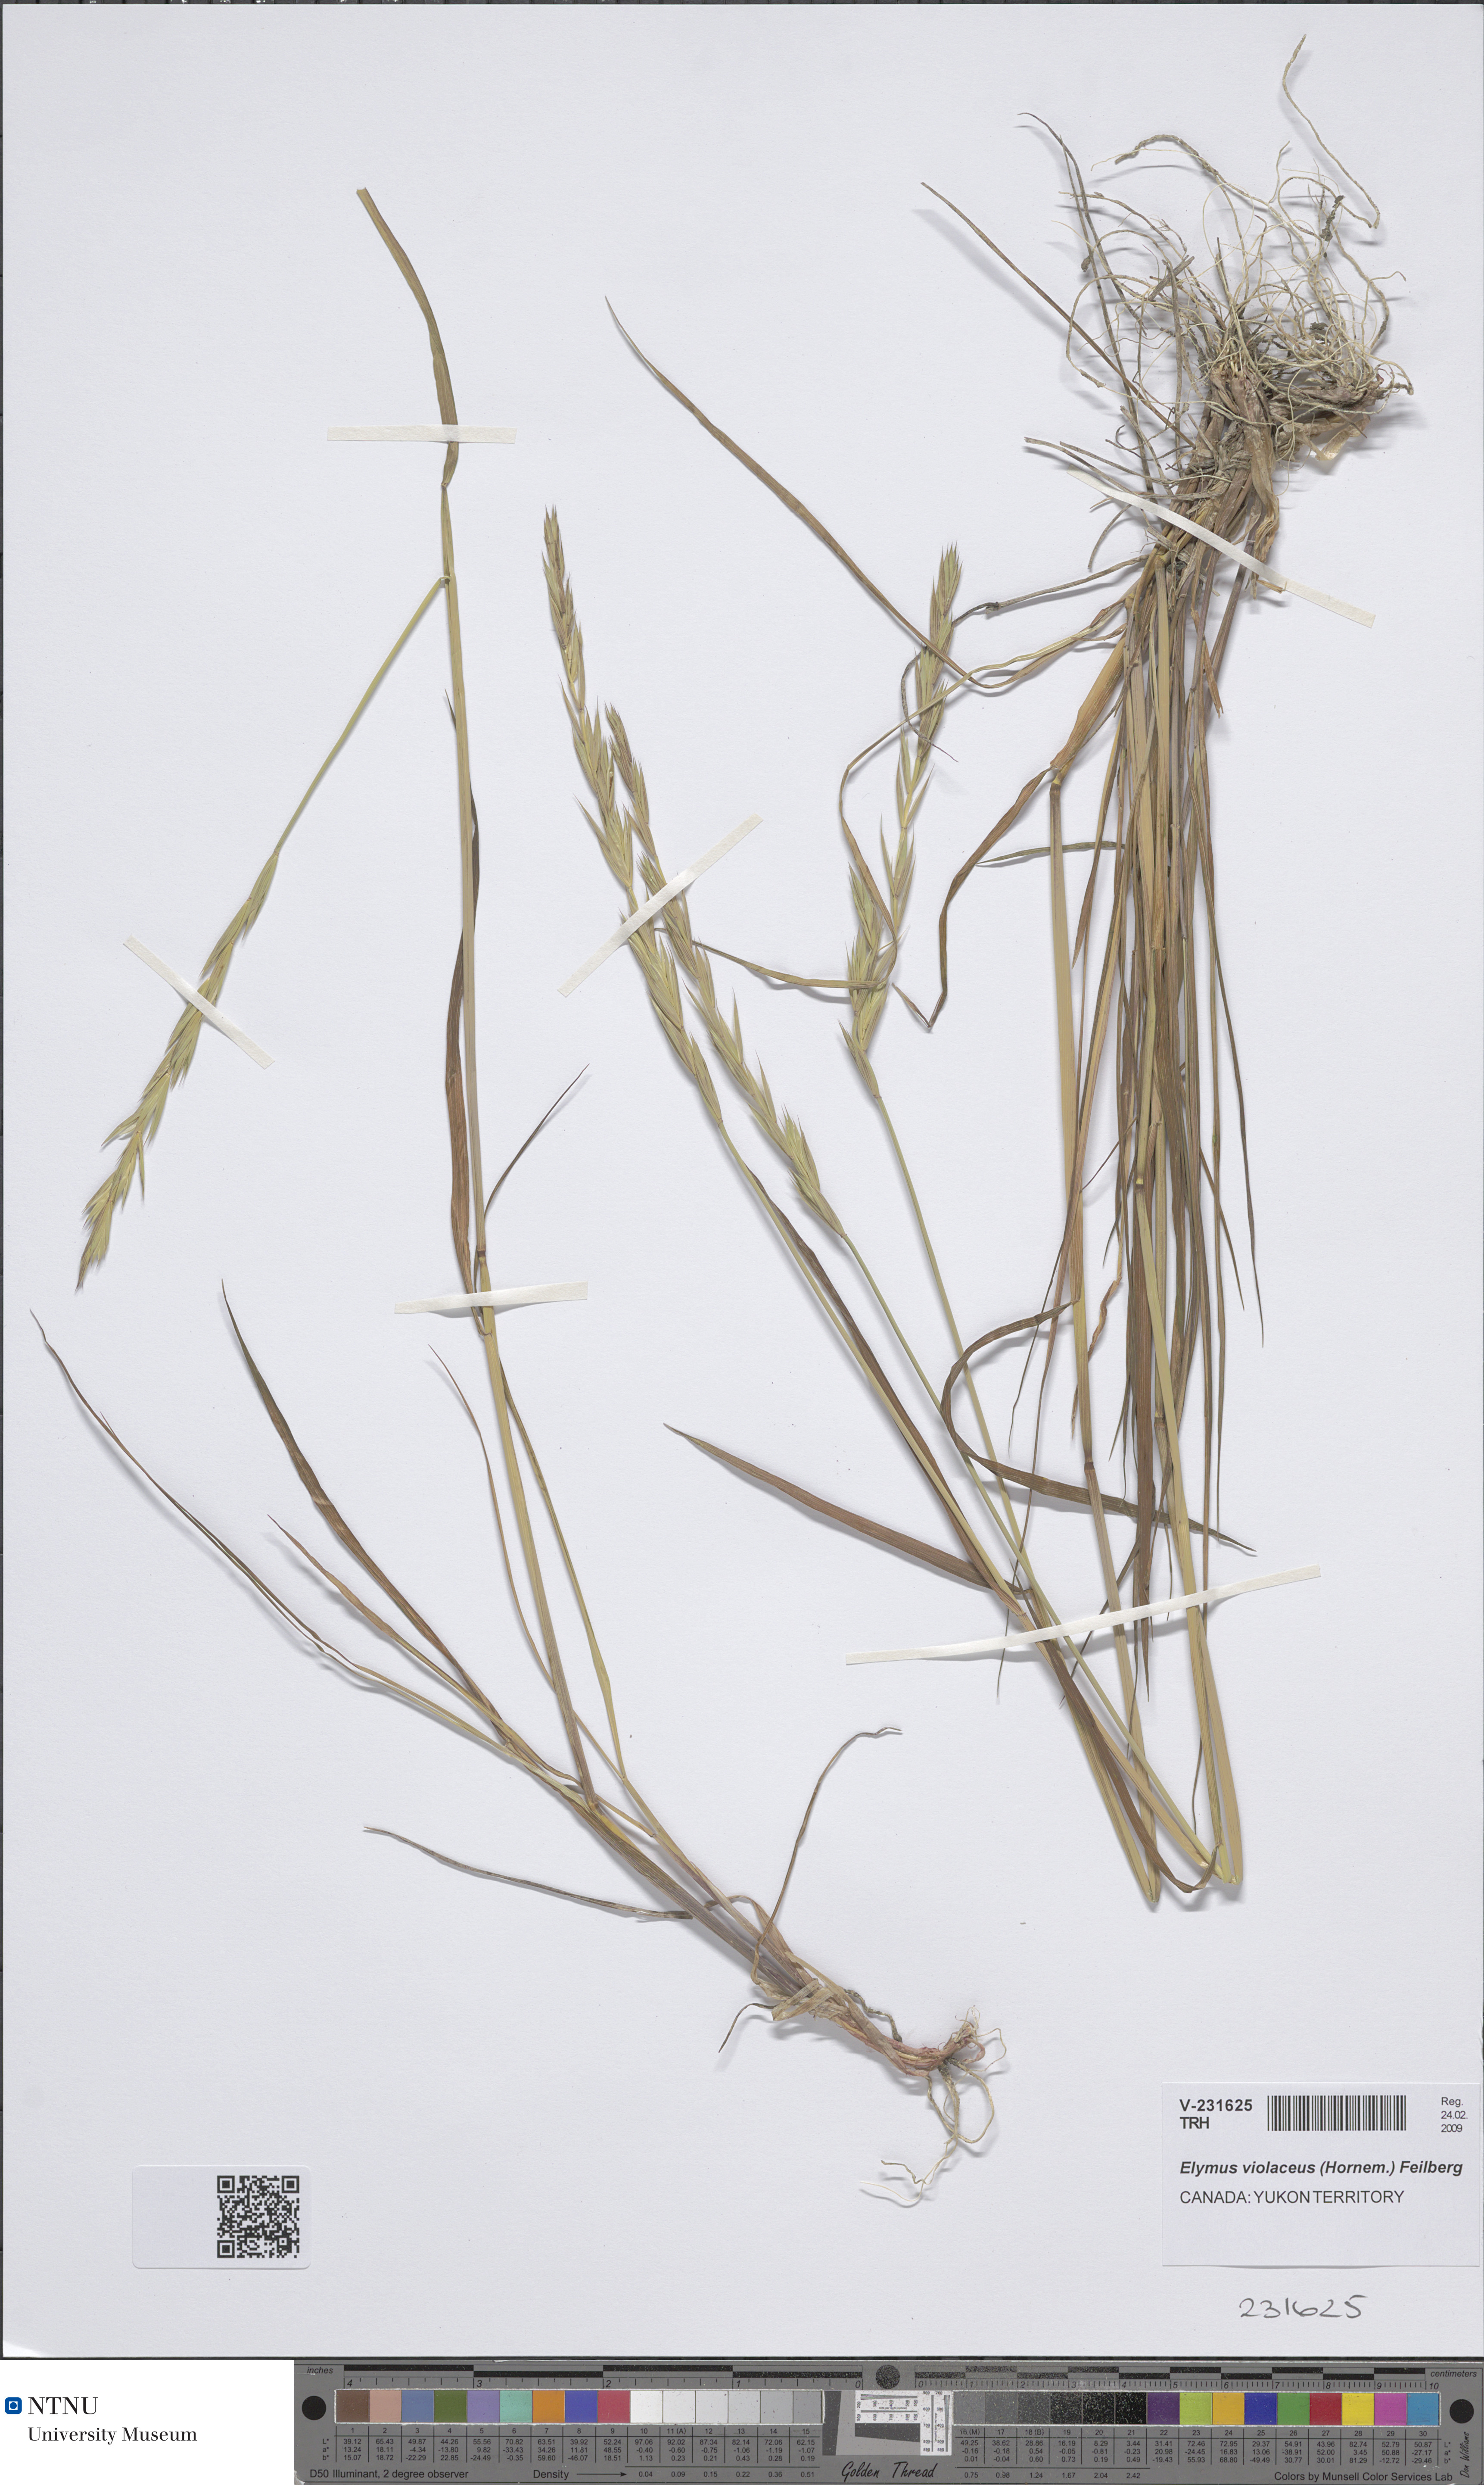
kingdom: Plantae
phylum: Tracheophyta
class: Liliopsida
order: Poales
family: Poaceae
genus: Elymus
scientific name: Elymus violaceus
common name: Arctic wheatgrass
